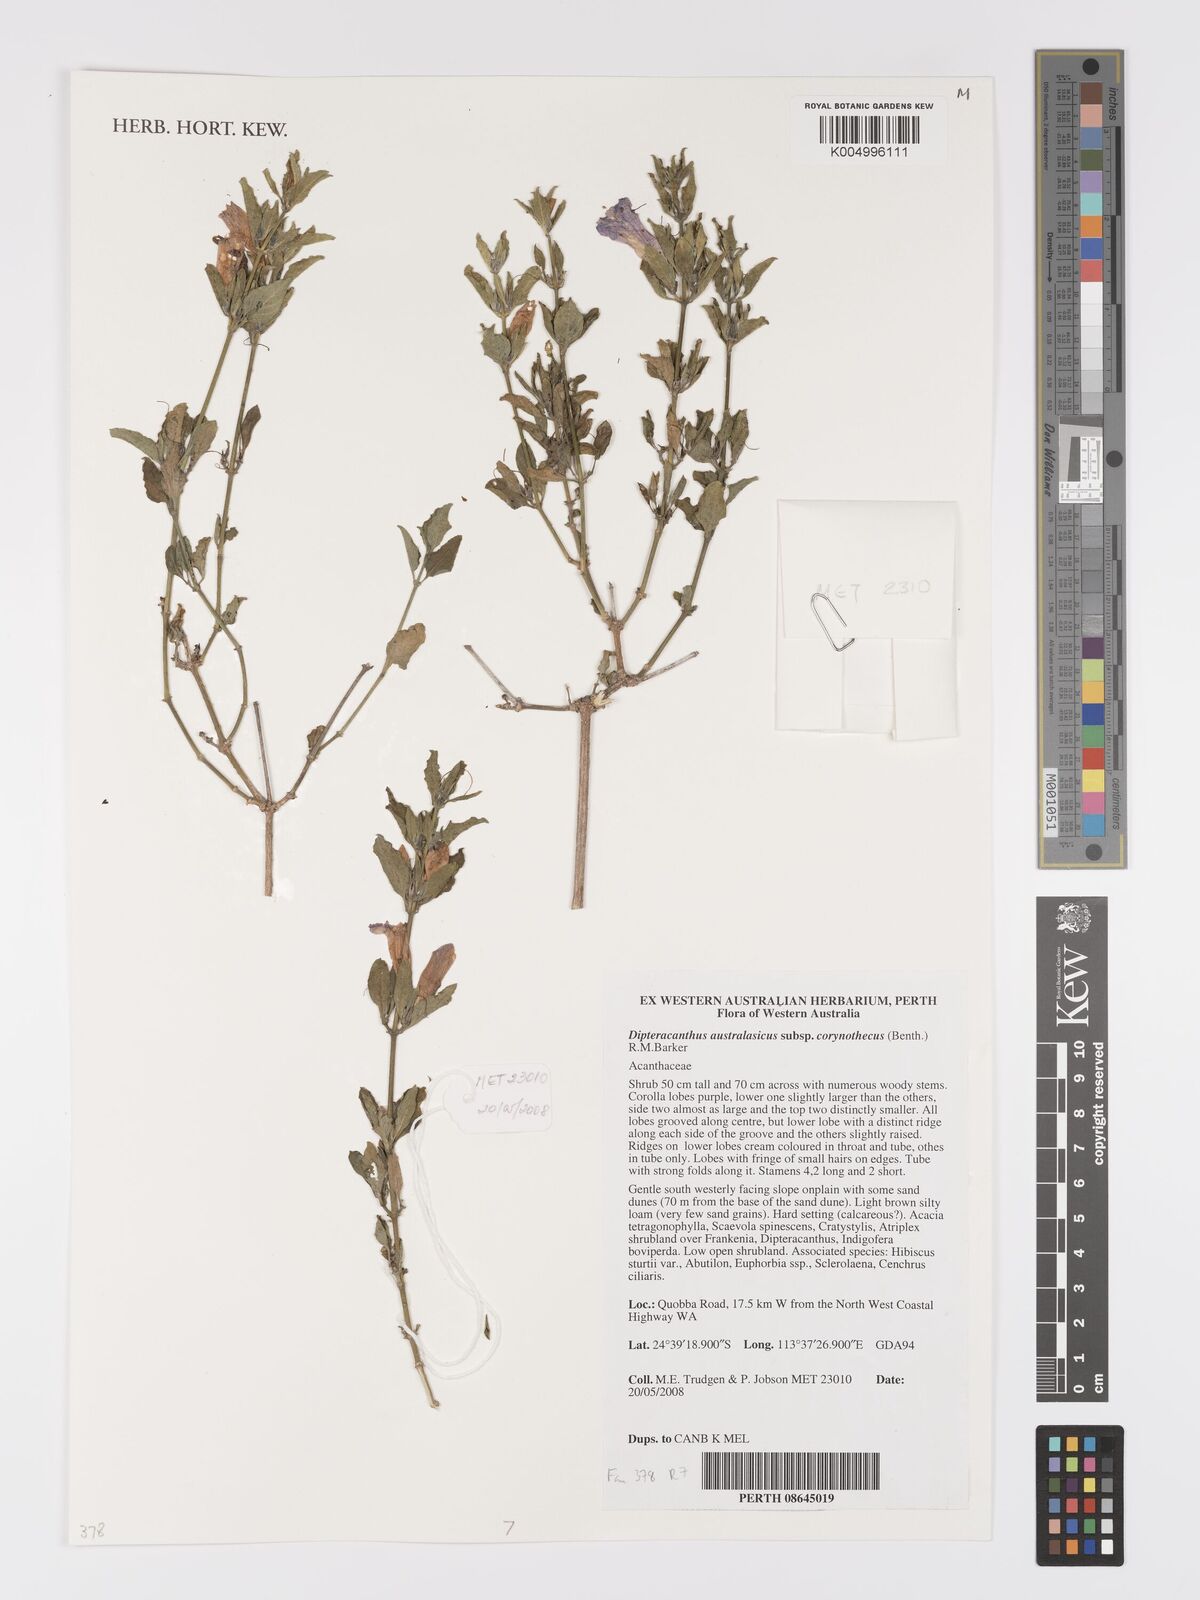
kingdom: Plantae
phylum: Tracheophyta
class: Magnoliopsida
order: Lamiales
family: Acanthaceae
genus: Ruellia
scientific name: Ruellia
